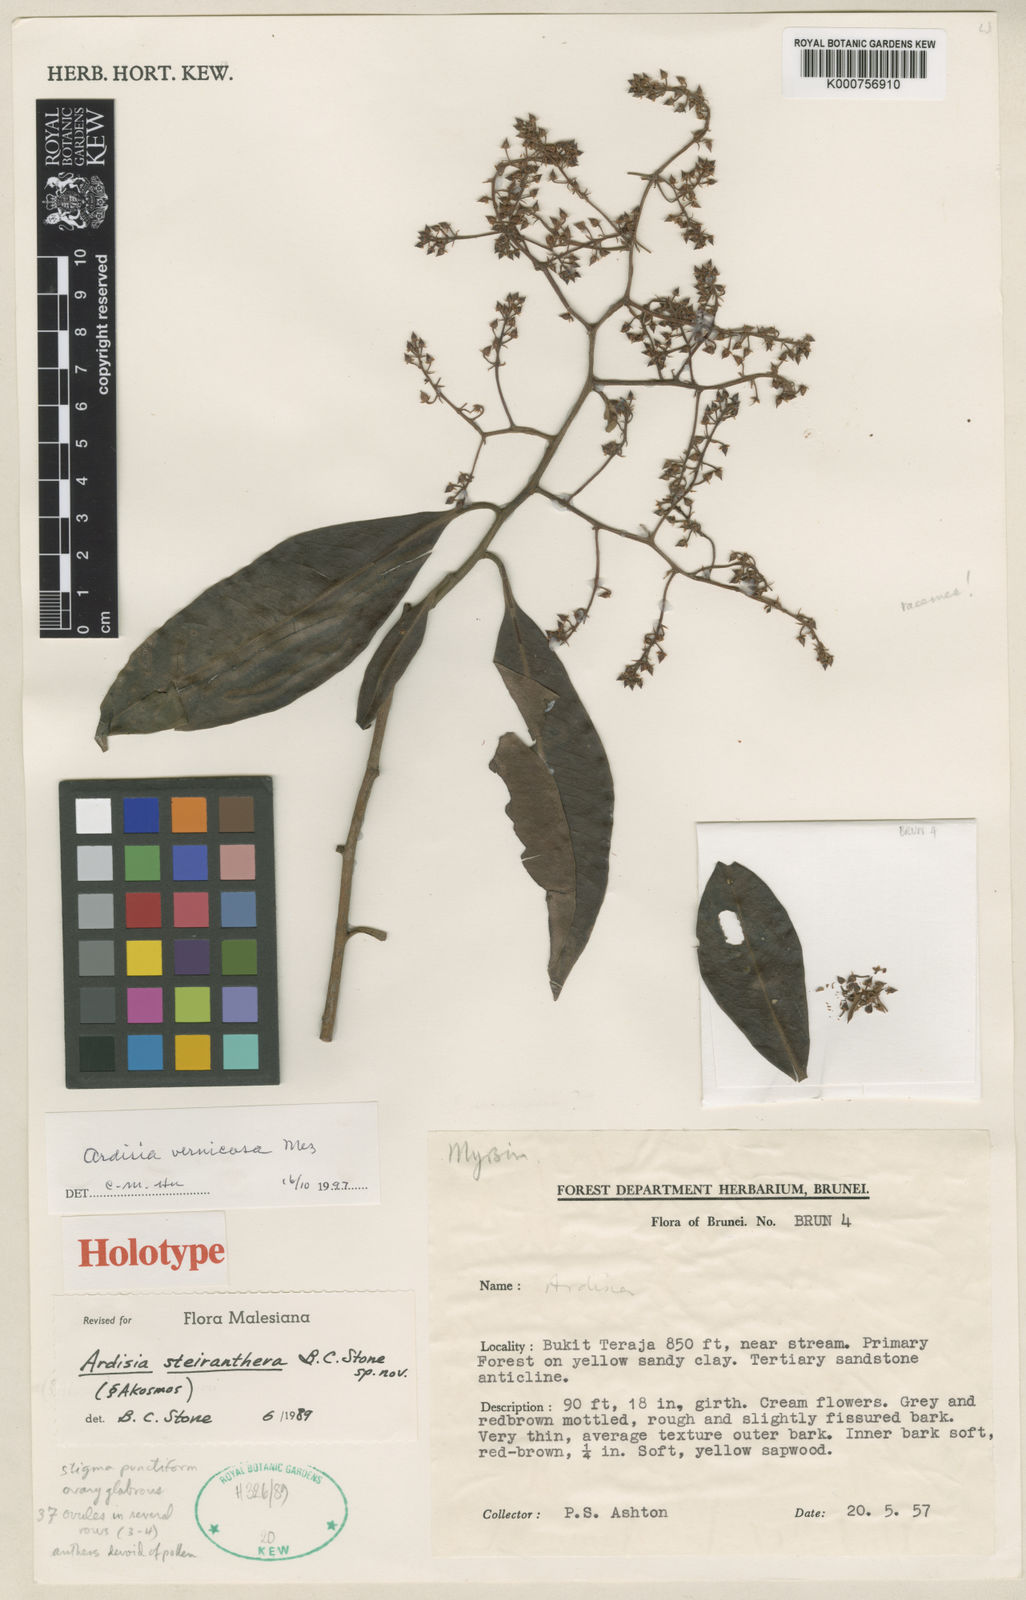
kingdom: Plantae
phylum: Tracheophyta
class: Magnoliopsida
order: Ericales
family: Primulaceae
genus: Ardisia
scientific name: Ardisia
